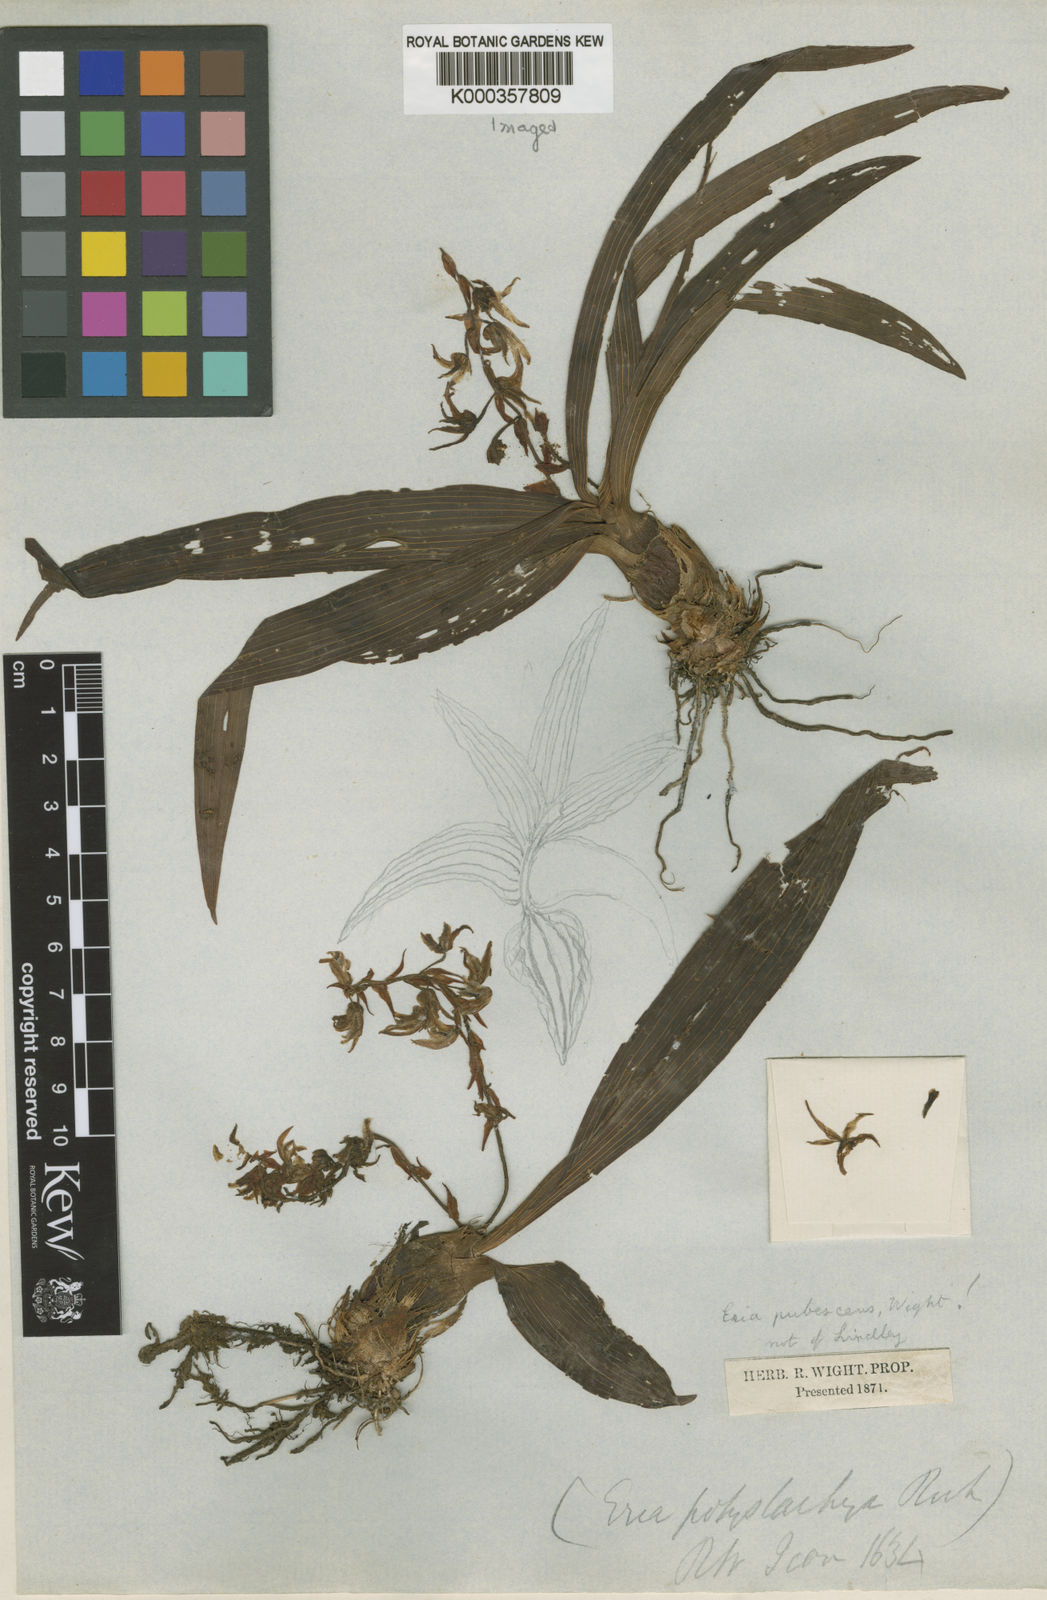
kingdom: Plantae
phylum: Tracheophyta
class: Liliopsida
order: Asparagales
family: Orchidaceae
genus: Pinalia
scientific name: Pinalia polystachya
